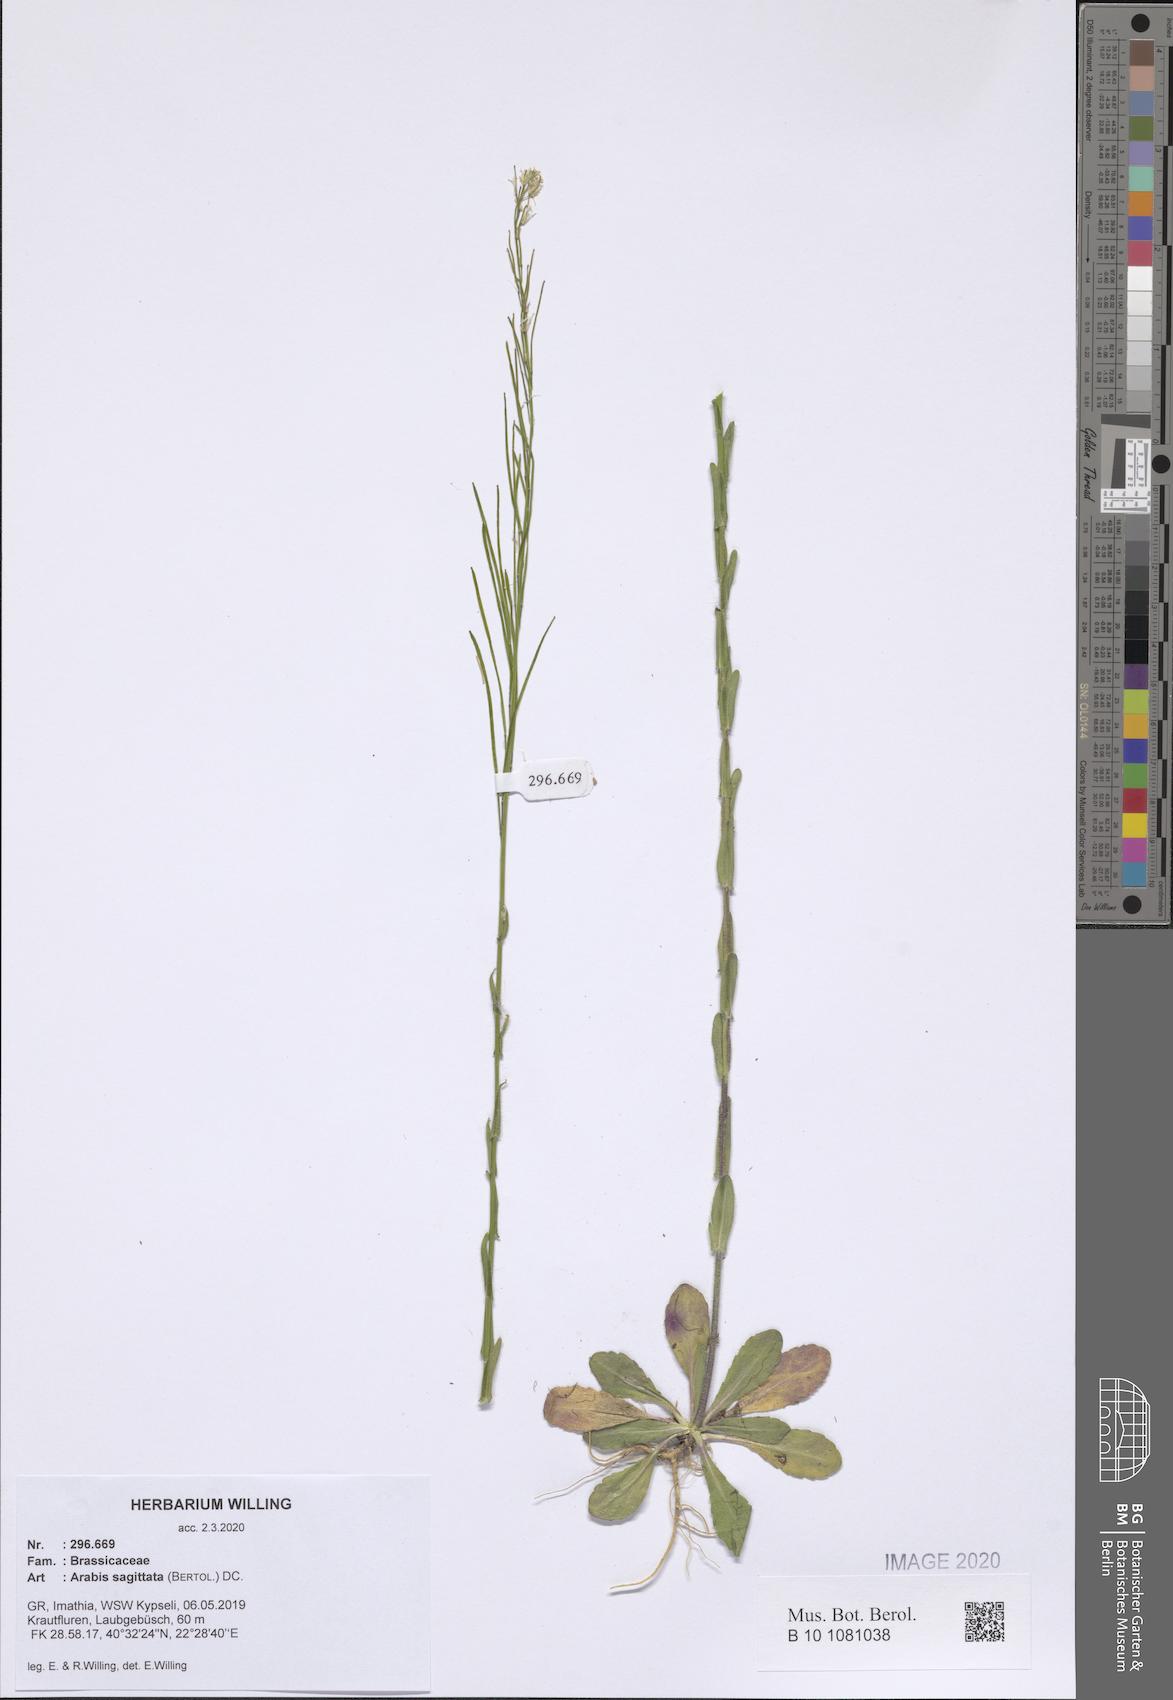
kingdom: Plantae
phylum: Tracheophyta
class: Magnoliopsida
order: Brassicales
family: Brassicaceae
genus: Arabis
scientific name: Arabis sagittata
